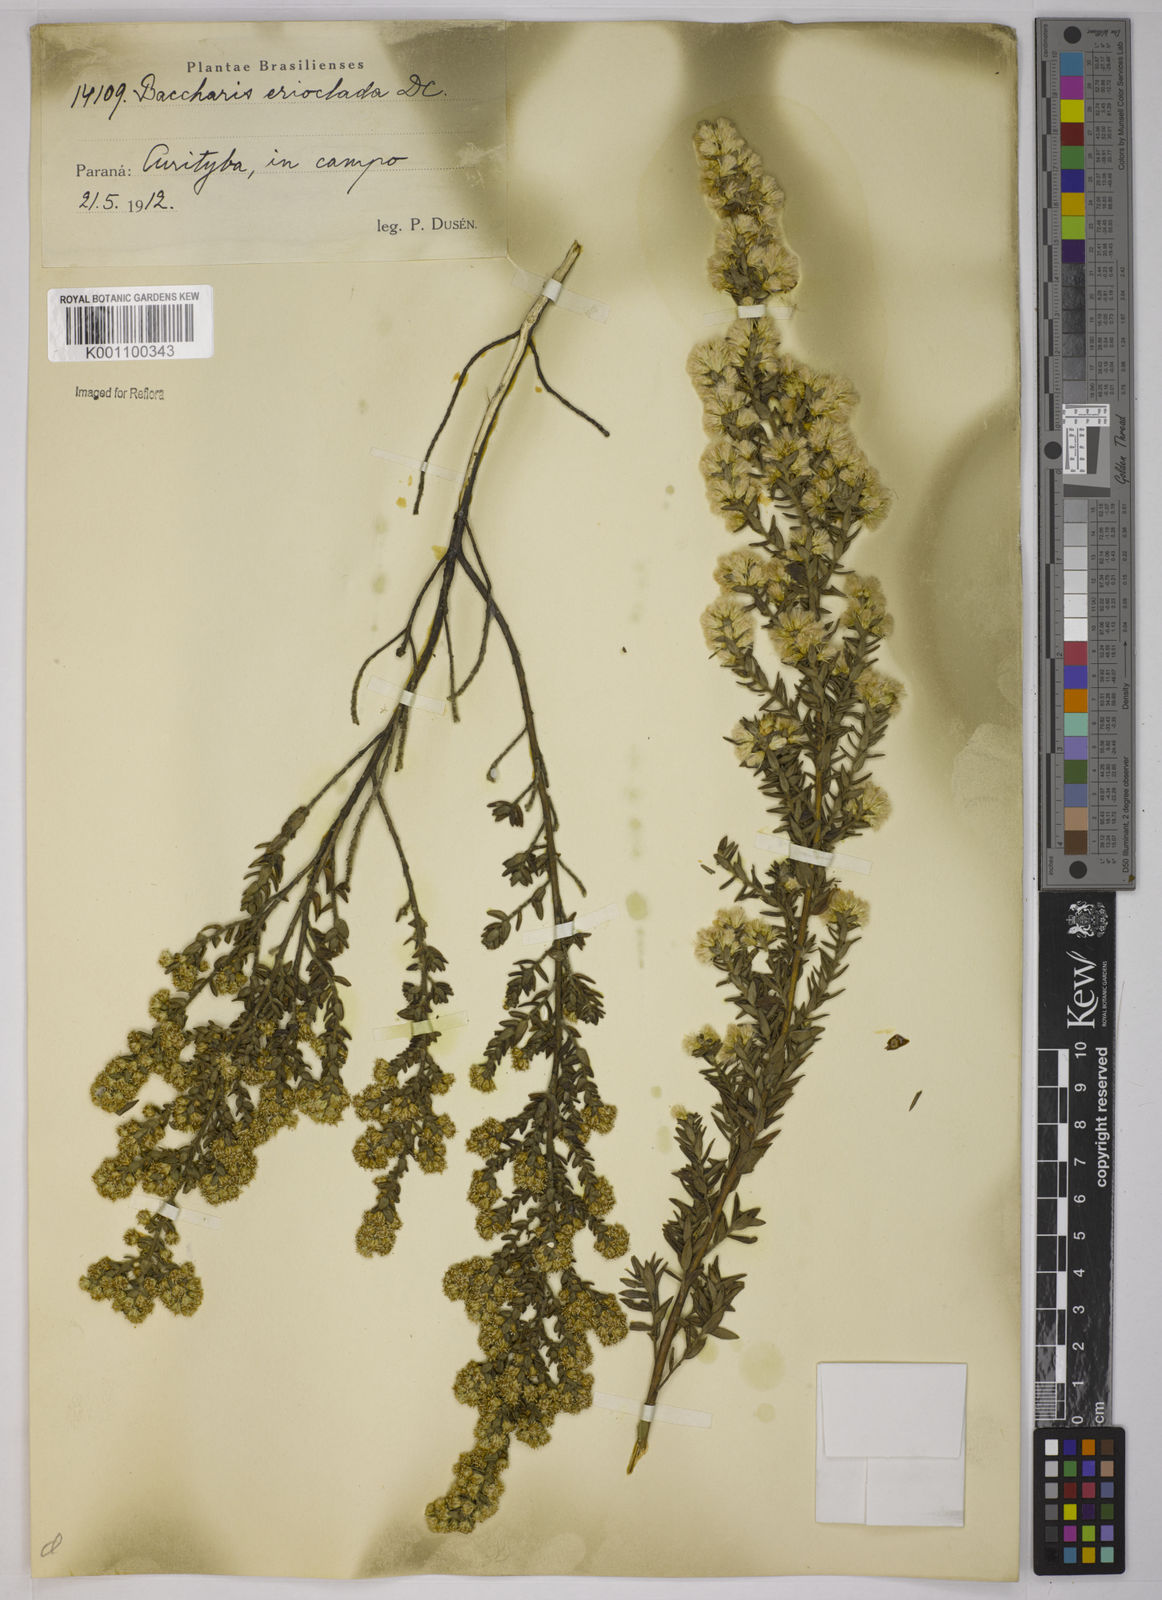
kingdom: Plantae
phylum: Tracheophyta
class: Magnoliopsida
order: Asterales
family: Asteraceae
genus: Baccharis
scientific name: Baccharis erioclada
